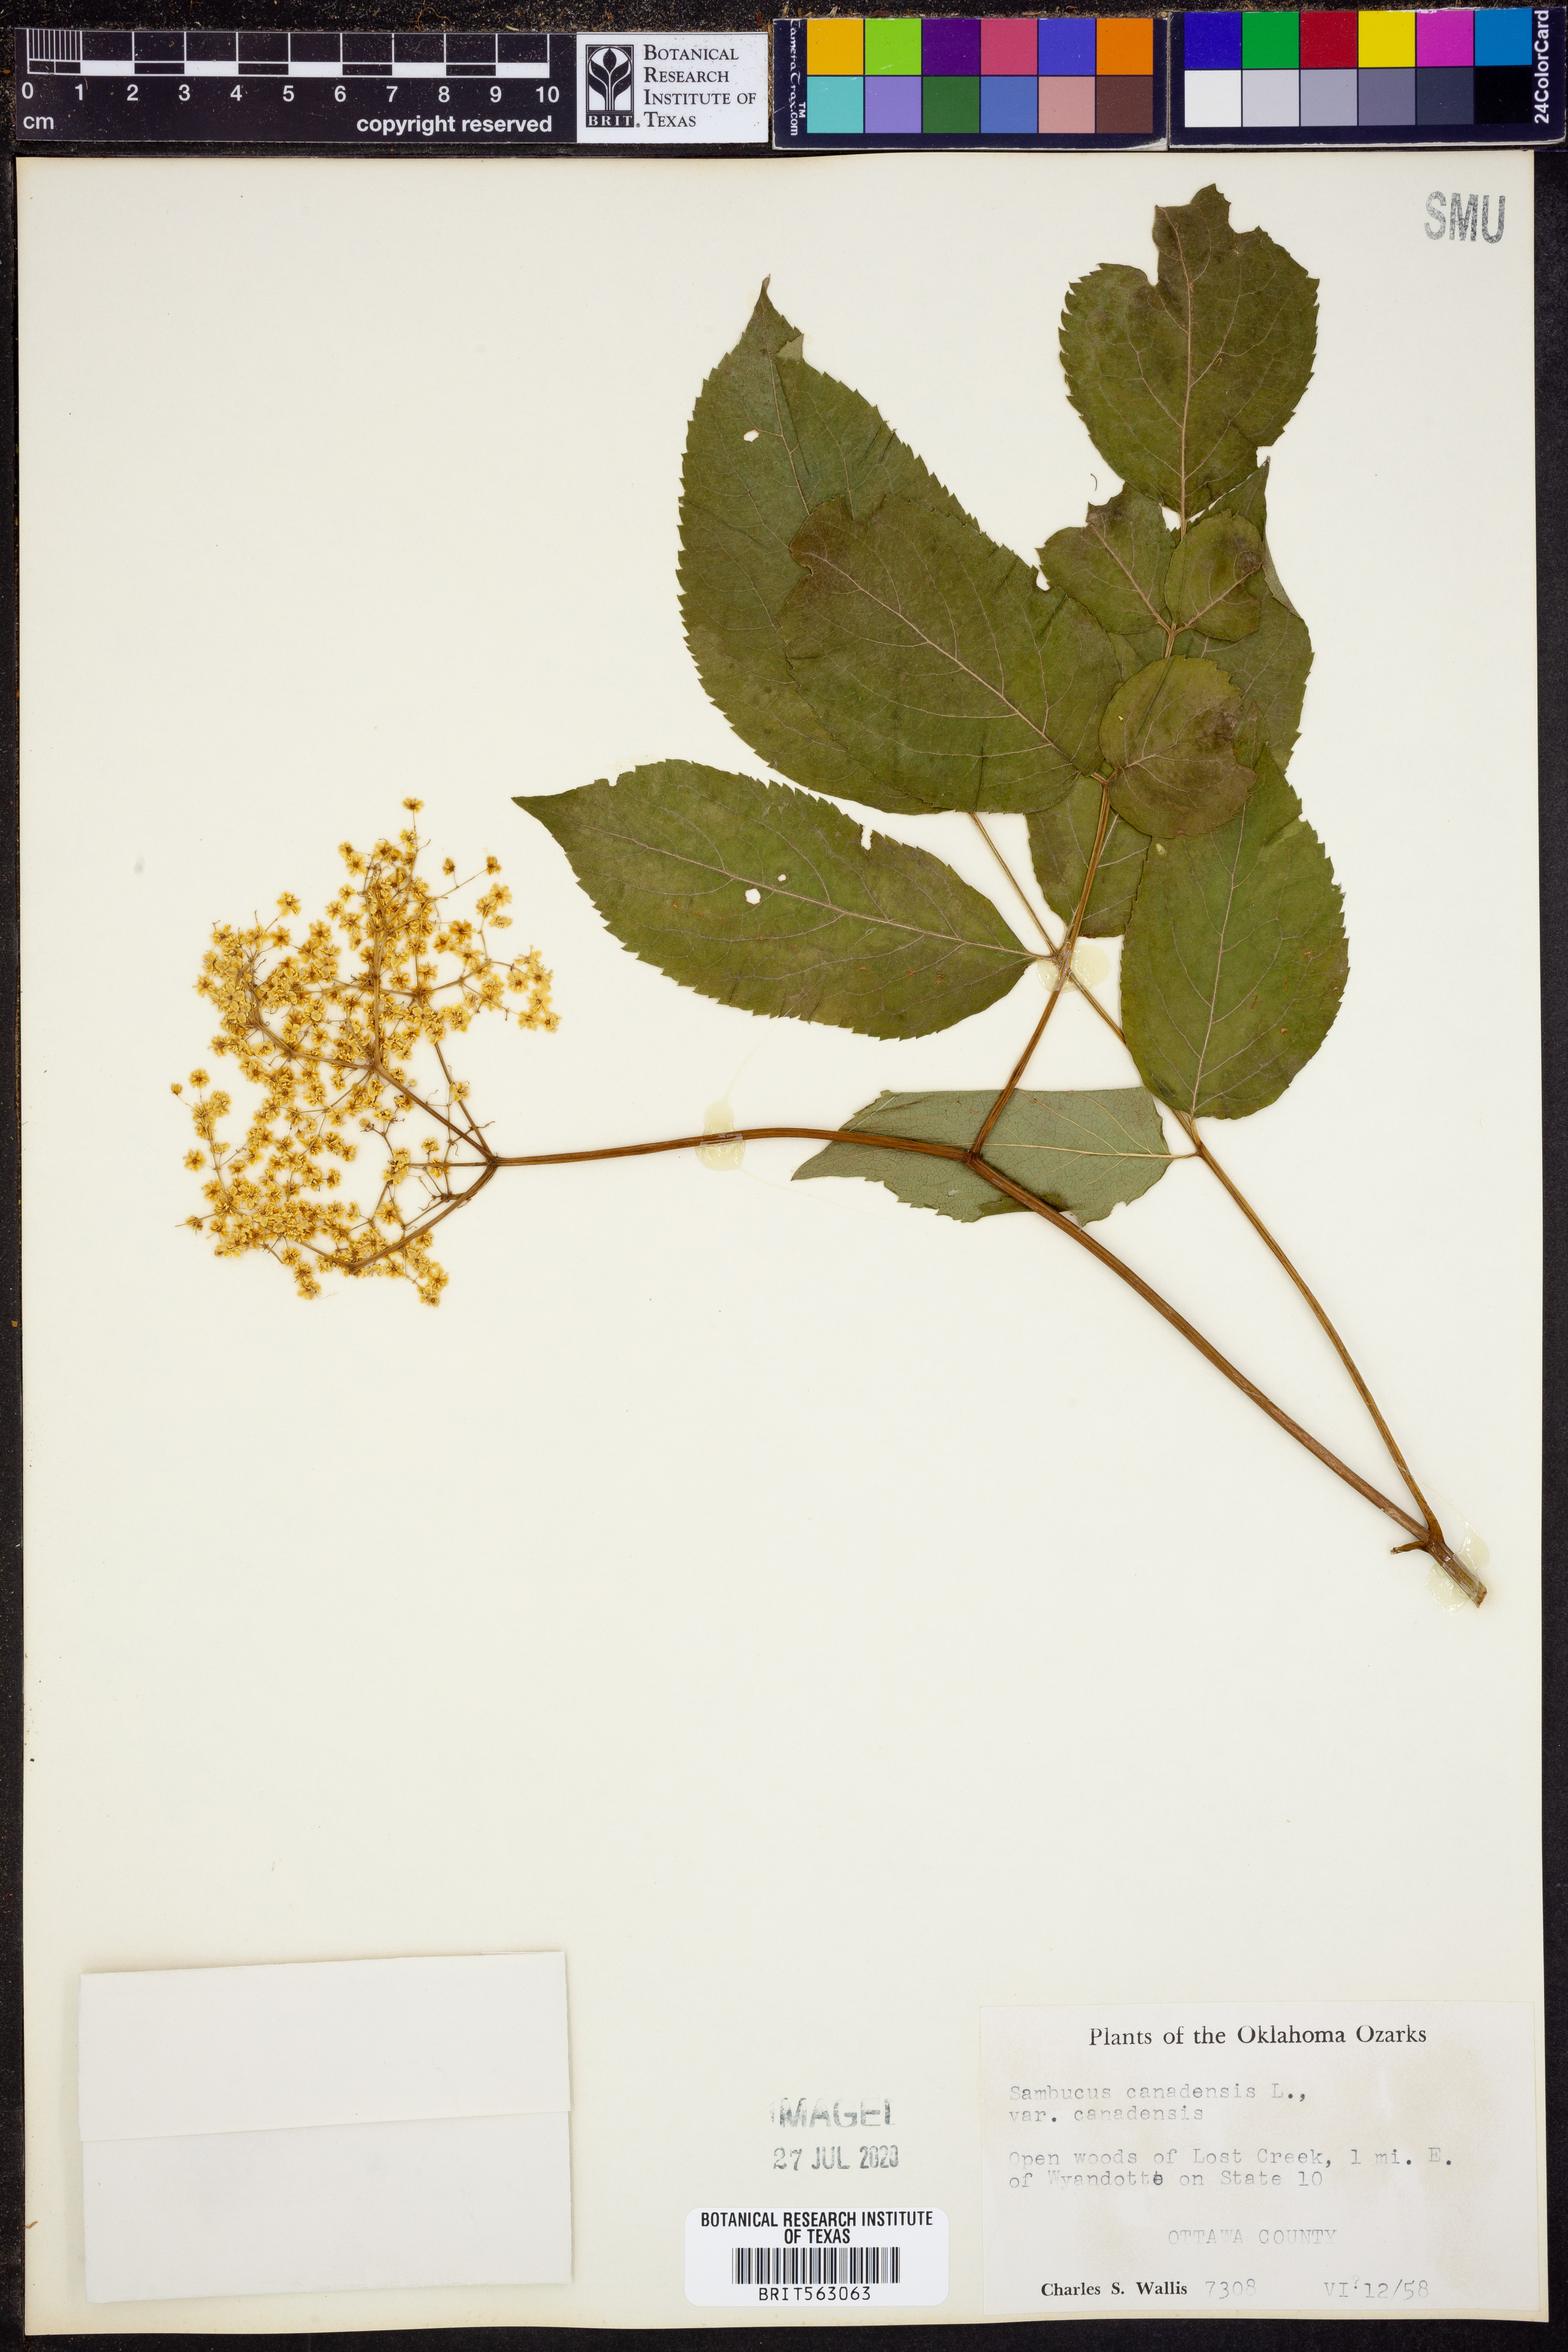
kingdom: Plantae
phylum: Tracheophyta
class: Magnoliopsida
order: Dipsacales
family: Viburnaceae
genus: Sambucus
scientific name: Sambucus canadensis
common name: American elder
